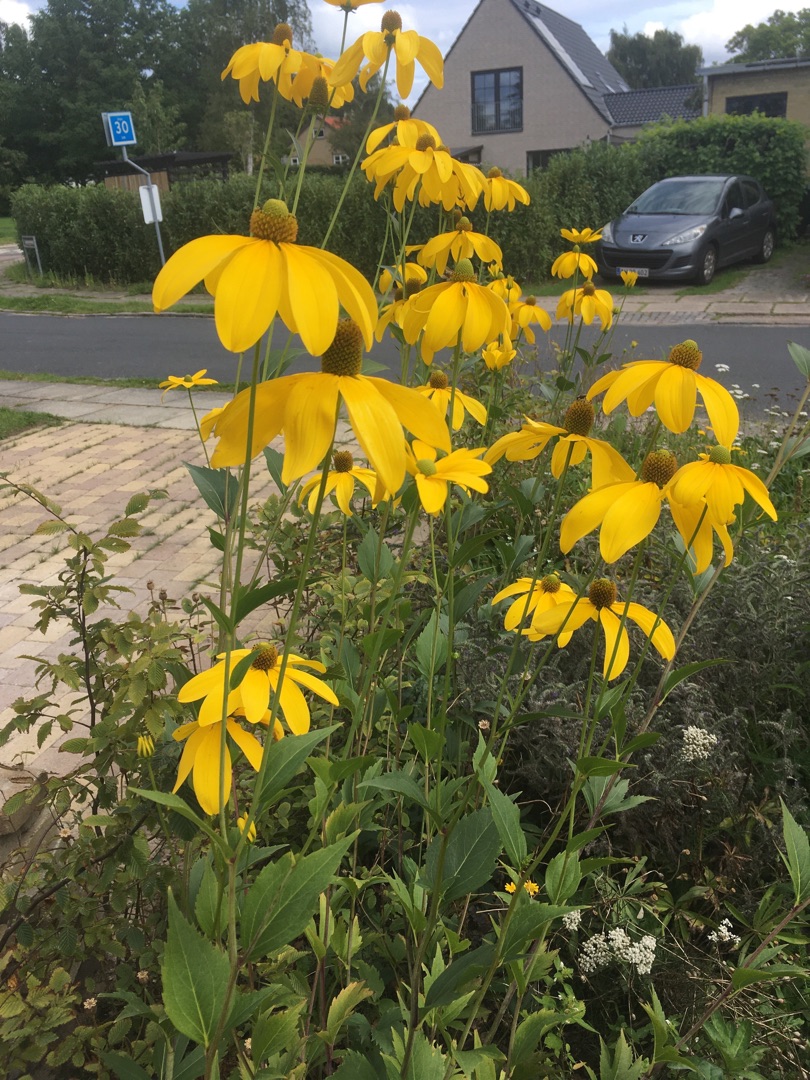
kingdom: Plantae
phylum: Tracheophyta
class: Magnoliopsida
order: Asterales
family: Asteraceae
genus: Rudbeckia
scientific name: Rudbeckia
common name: Solhatslægten
